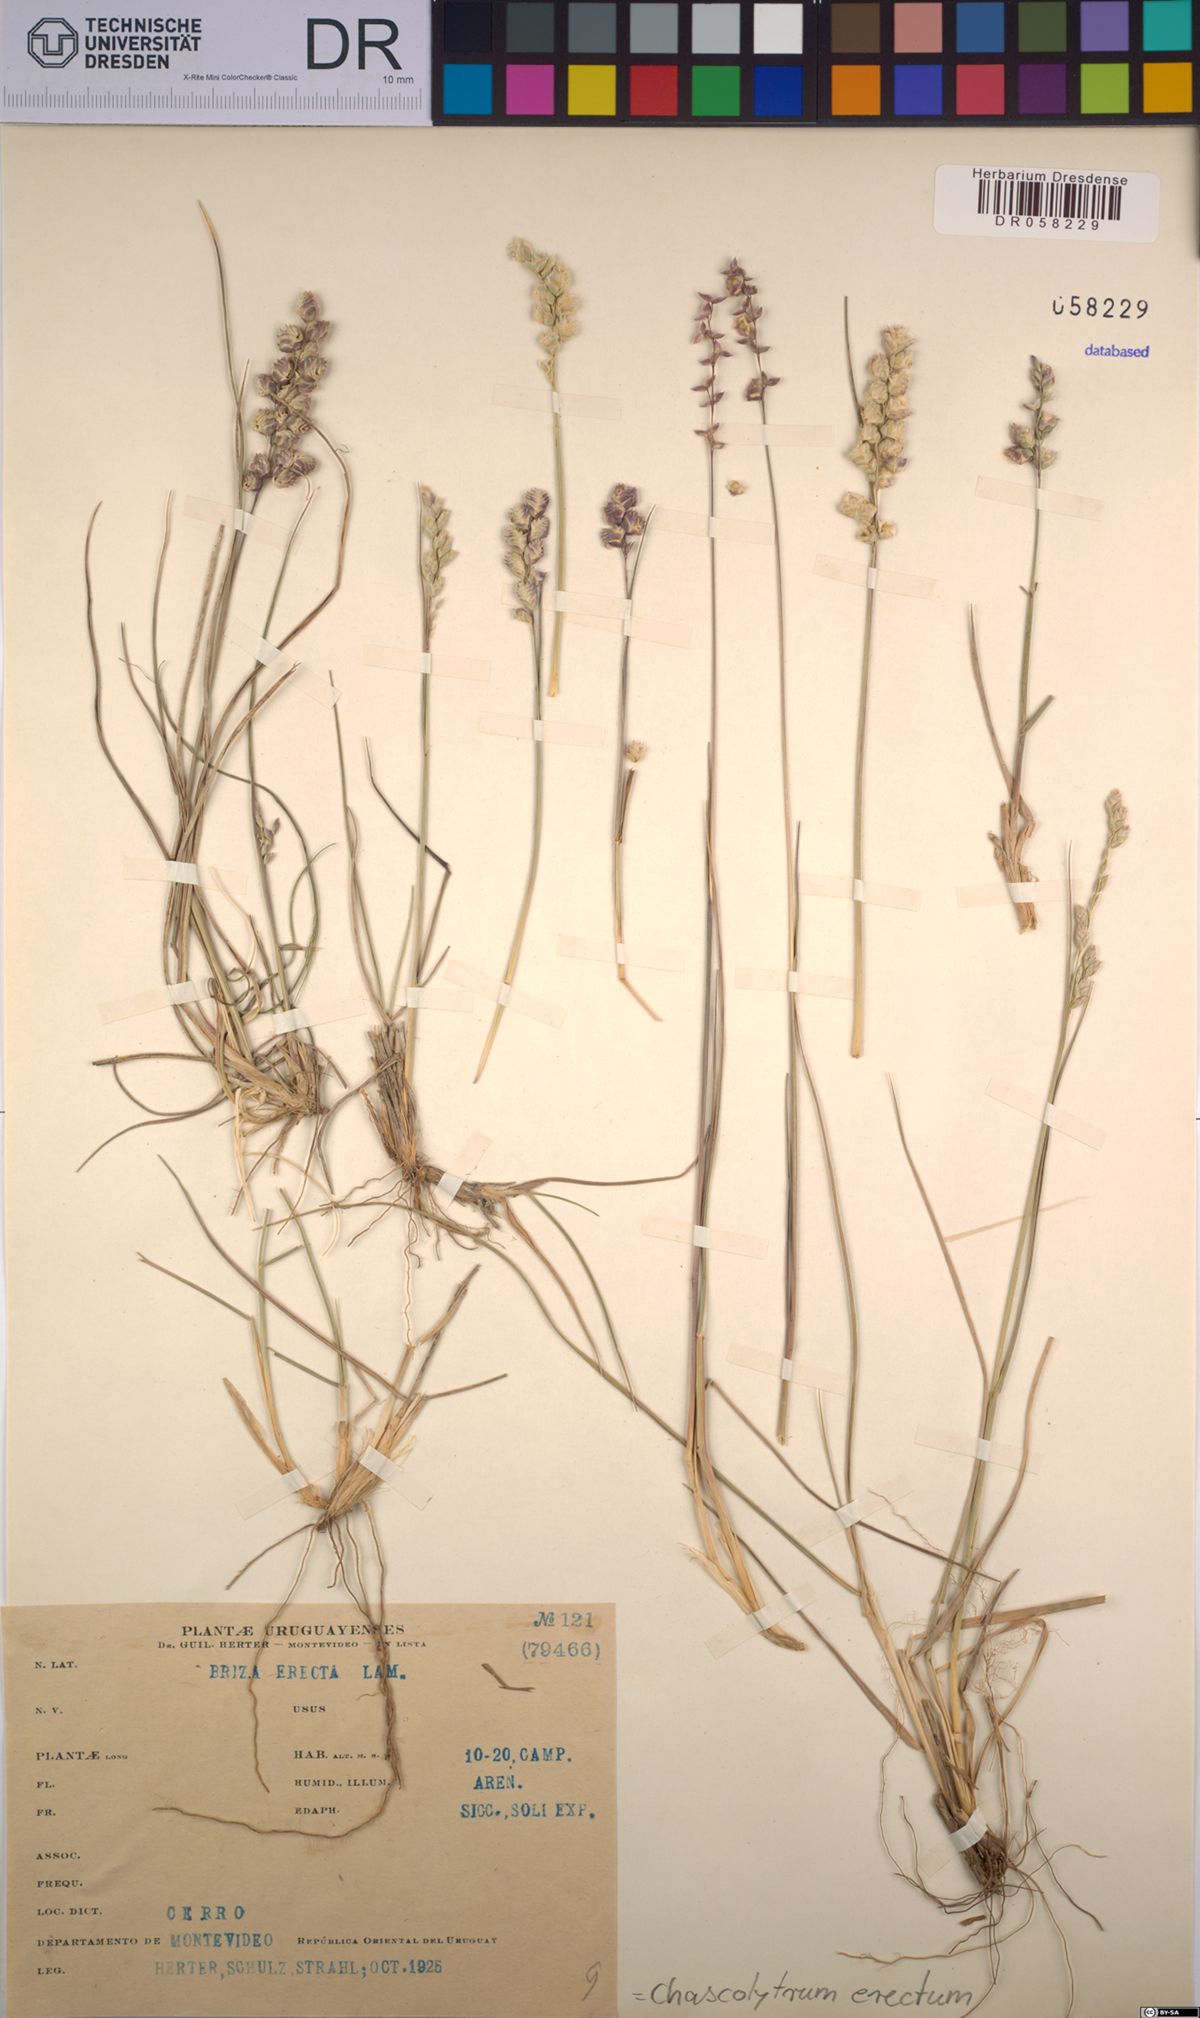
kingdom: Plantae
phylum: Tracheophyta
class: Liliopsida
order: Poales
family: Poaceae
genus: Chascolytrum
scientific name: Chascolytrum erectum
